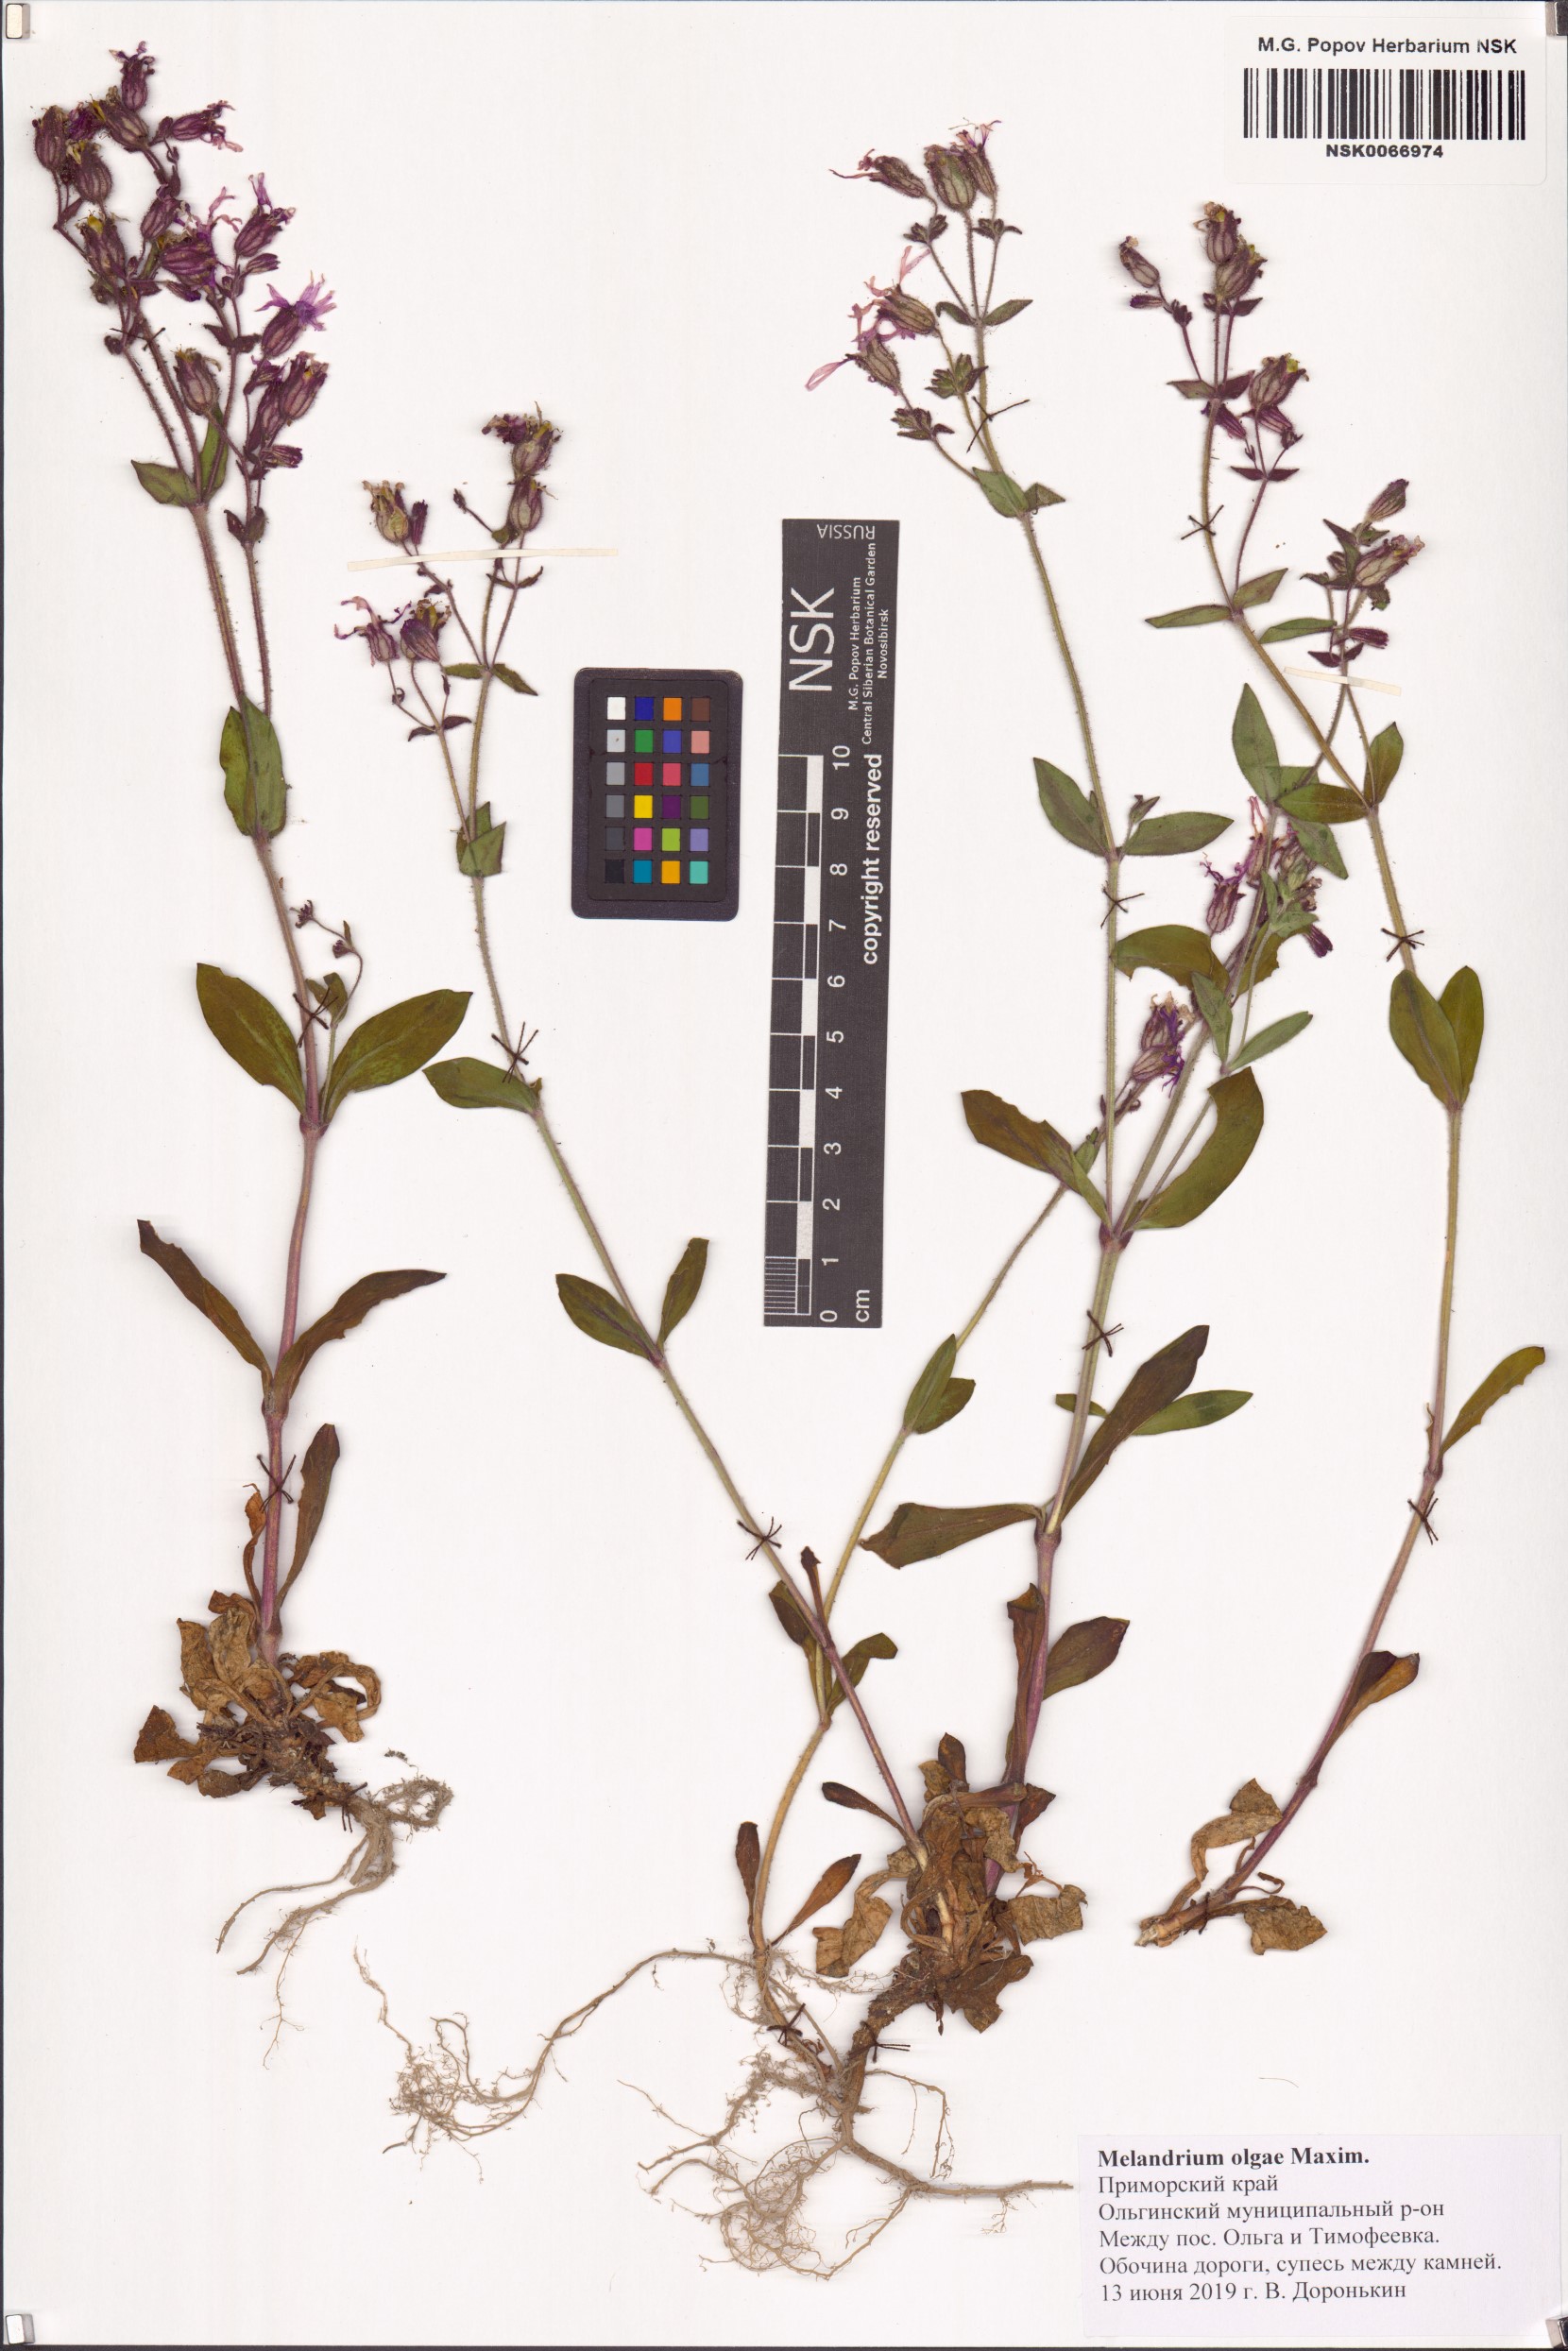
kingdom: Plantae
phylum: Tracheophyta
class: Magnoliopsida
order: Caryophyllales
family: Caryophyllaceae
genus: Silene
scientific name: Silene olgae
